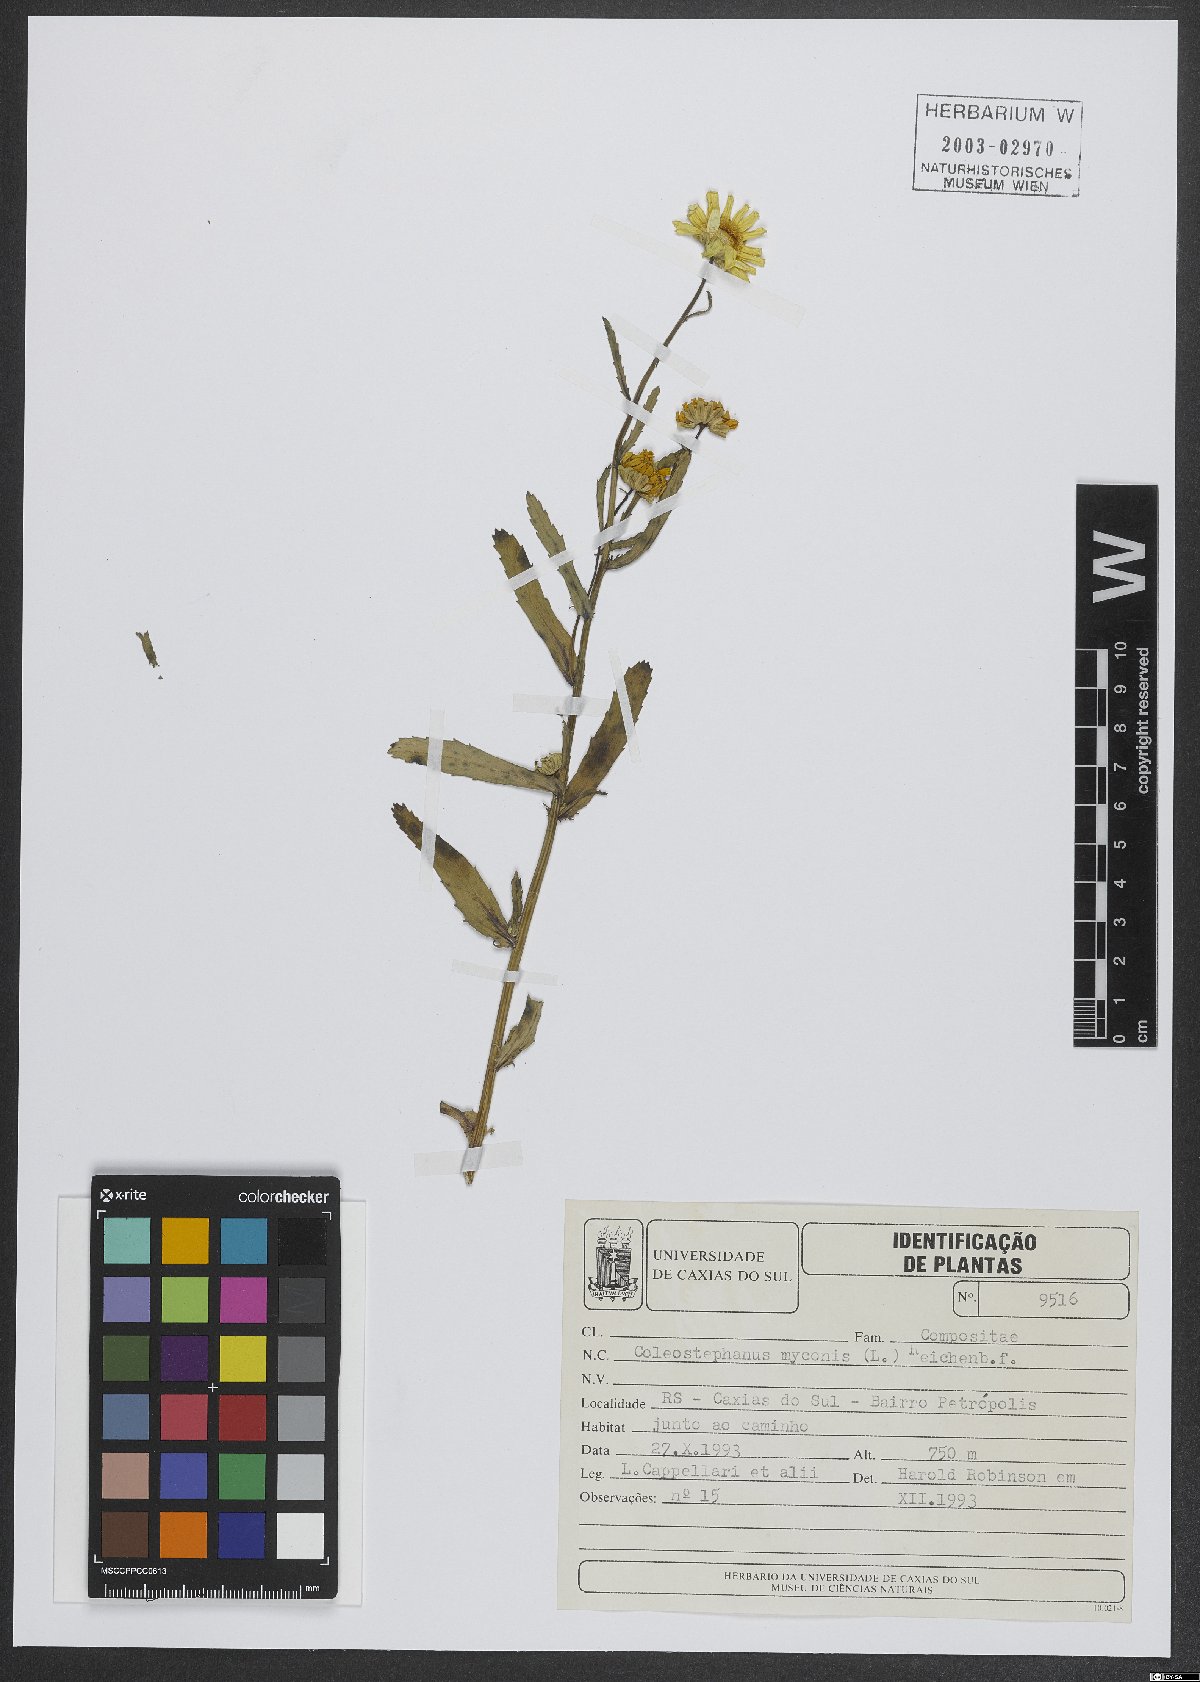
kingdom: Plantae
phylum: Tracheophyta
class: Magnoliopsida
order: Asterales
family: Asteraceae
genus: Coleostephus
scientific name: Coleostephus myconis
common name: Mediterranean marigold
